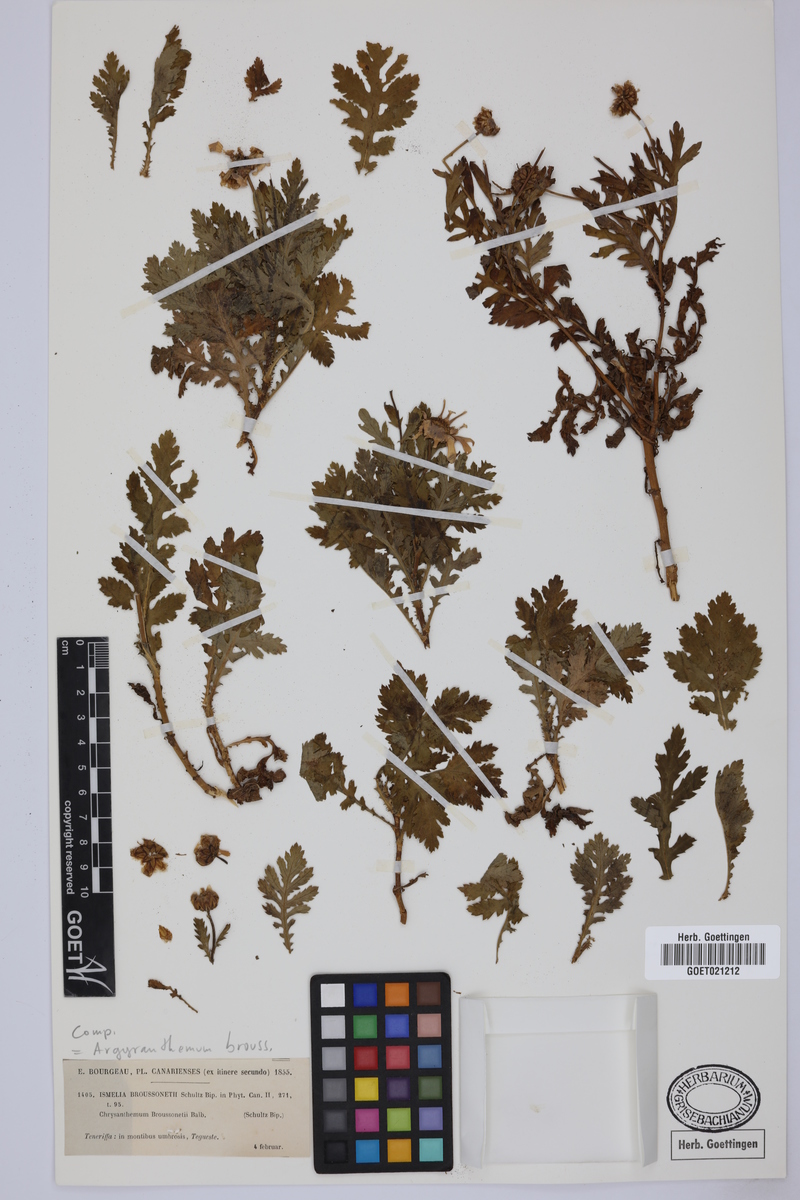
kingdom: Plantae
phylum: Tracheophyta
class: Magnoliopsida
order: Asterales
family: Asteraceae
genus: Argyranthemum
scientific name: Argyranthemum broussonetii
